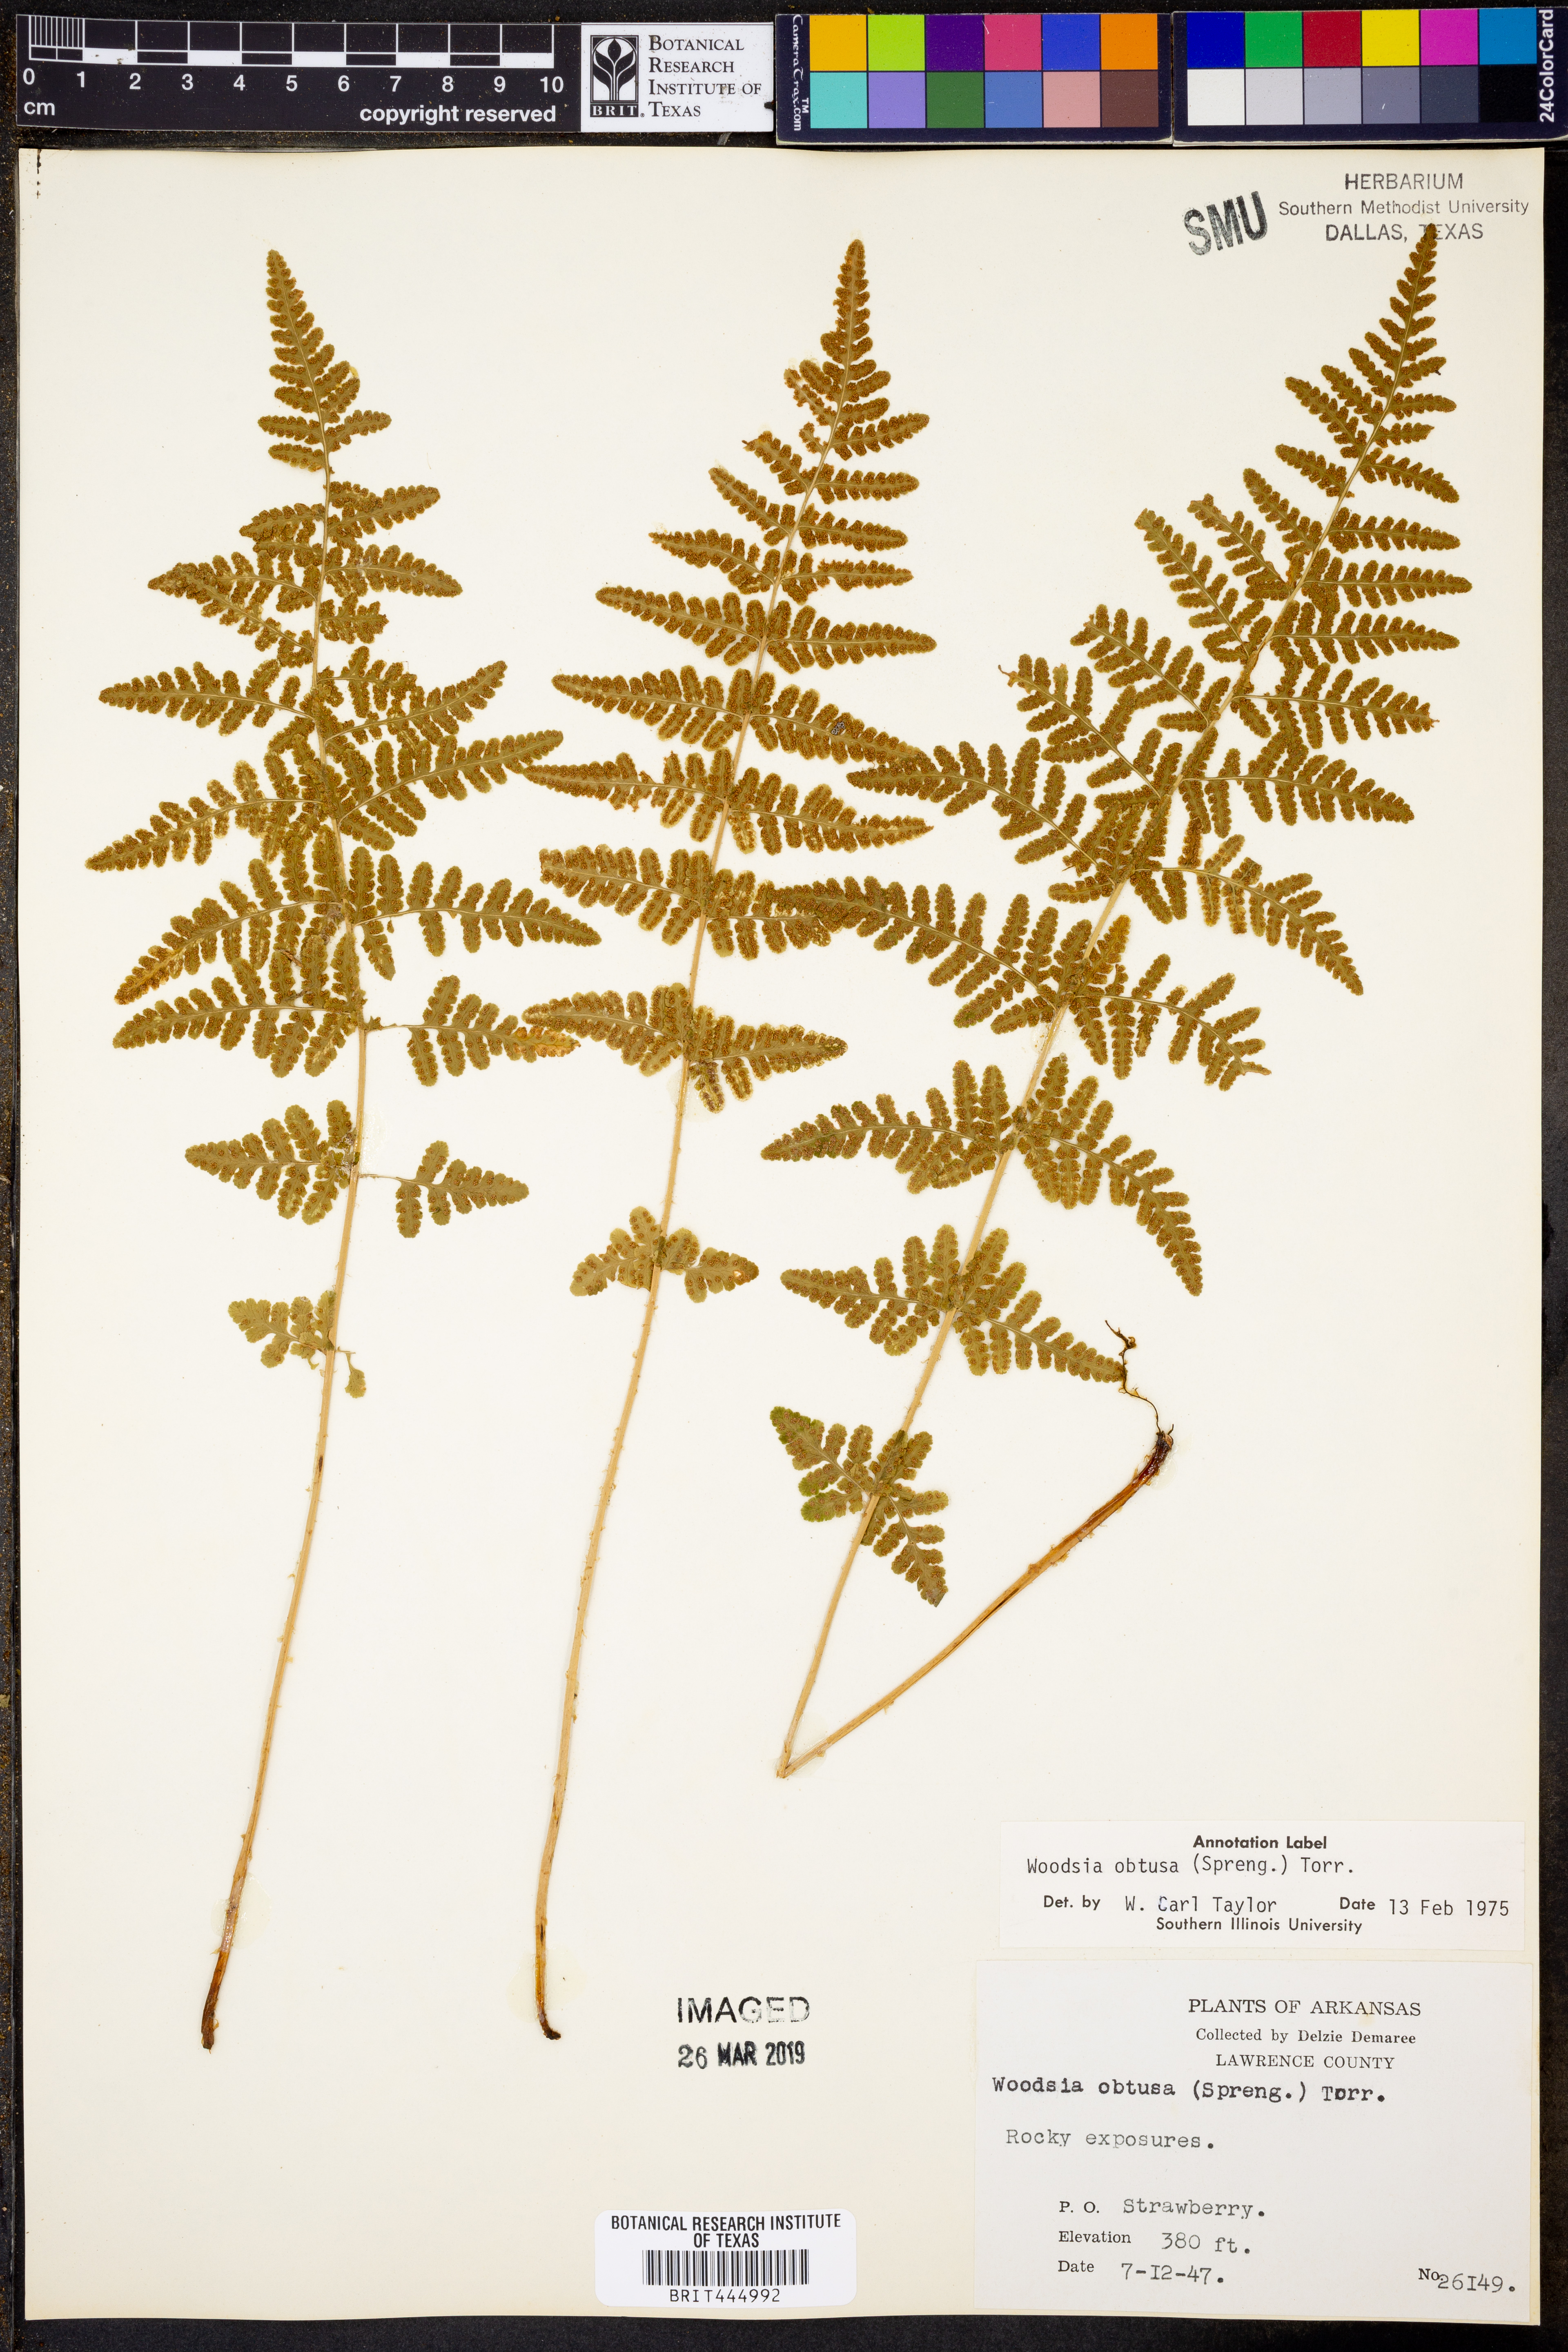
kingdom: Plantae
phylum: Tracheophyta
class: Polypodiopsida
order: Polypodiales
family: Woodsiaceae
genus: Physematium
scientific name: Physematium obtusum
